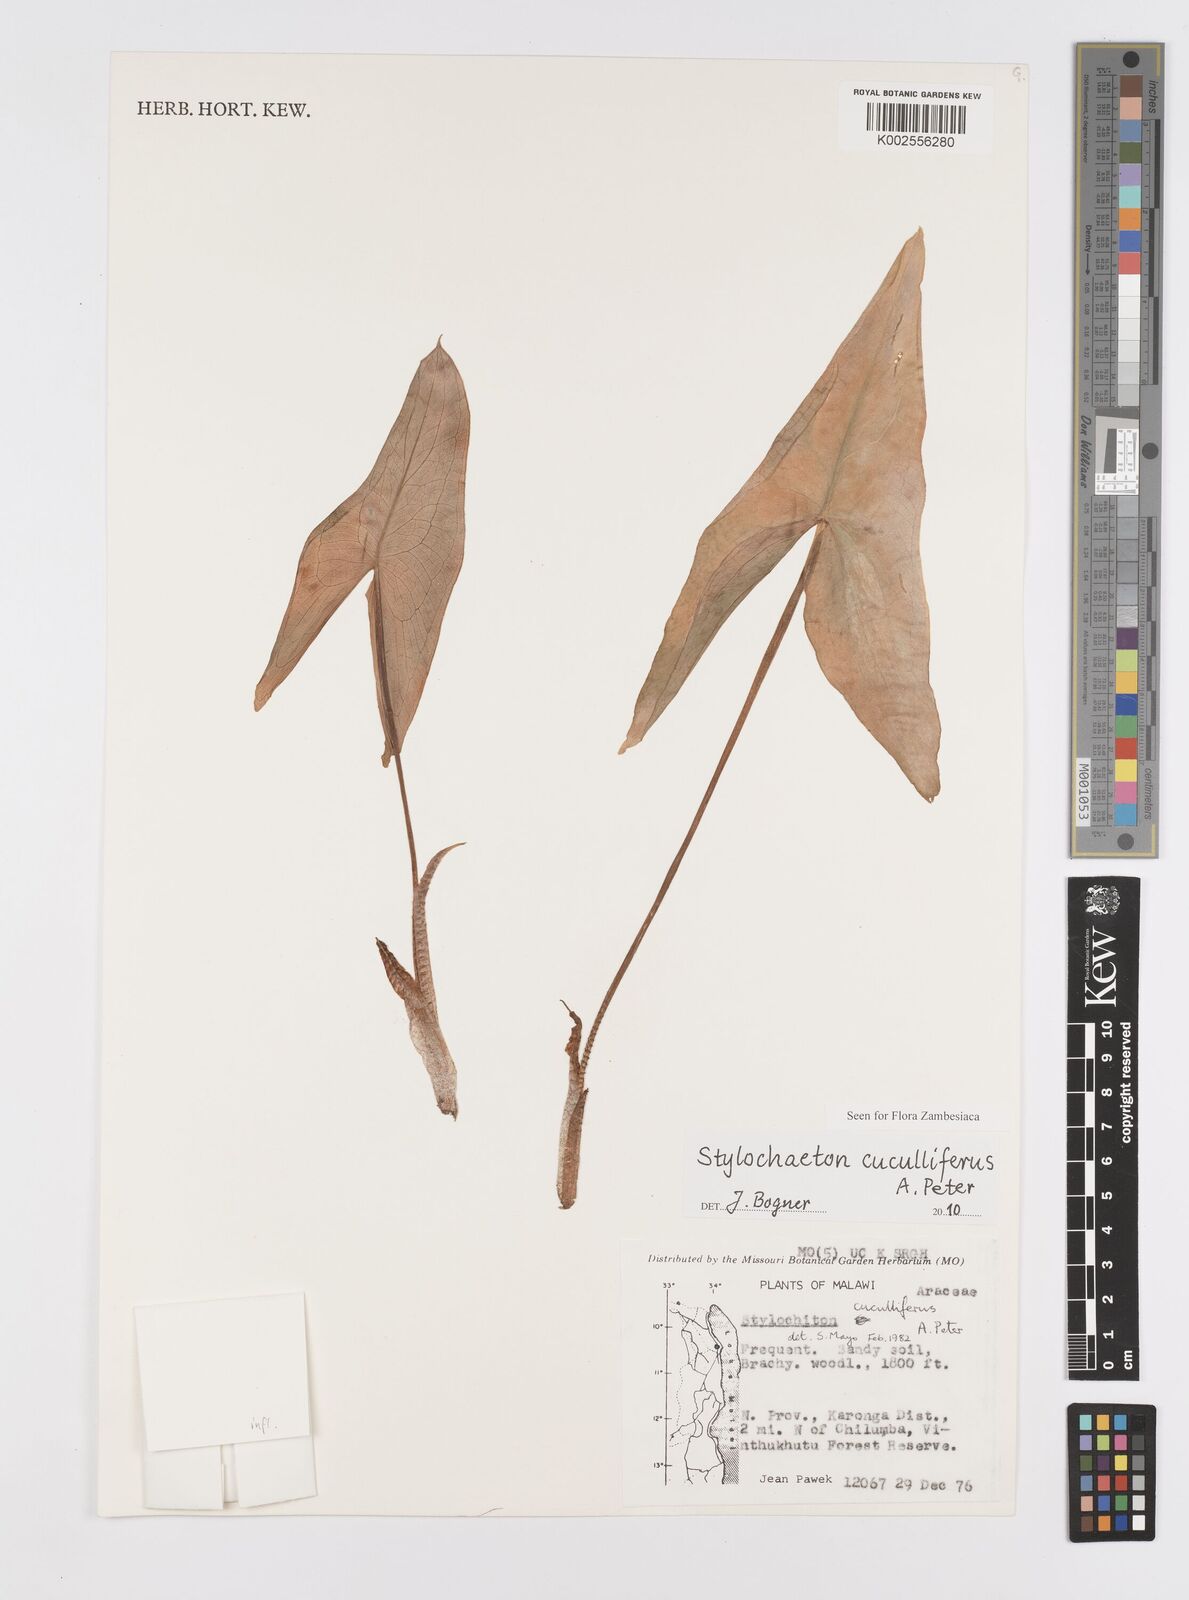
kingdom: Plantae
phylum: Tracheophyta
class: Liliopsida
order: Alismatales
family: Araceae
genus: Stylochaeton
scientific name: Stylochaeton cuculliferum
